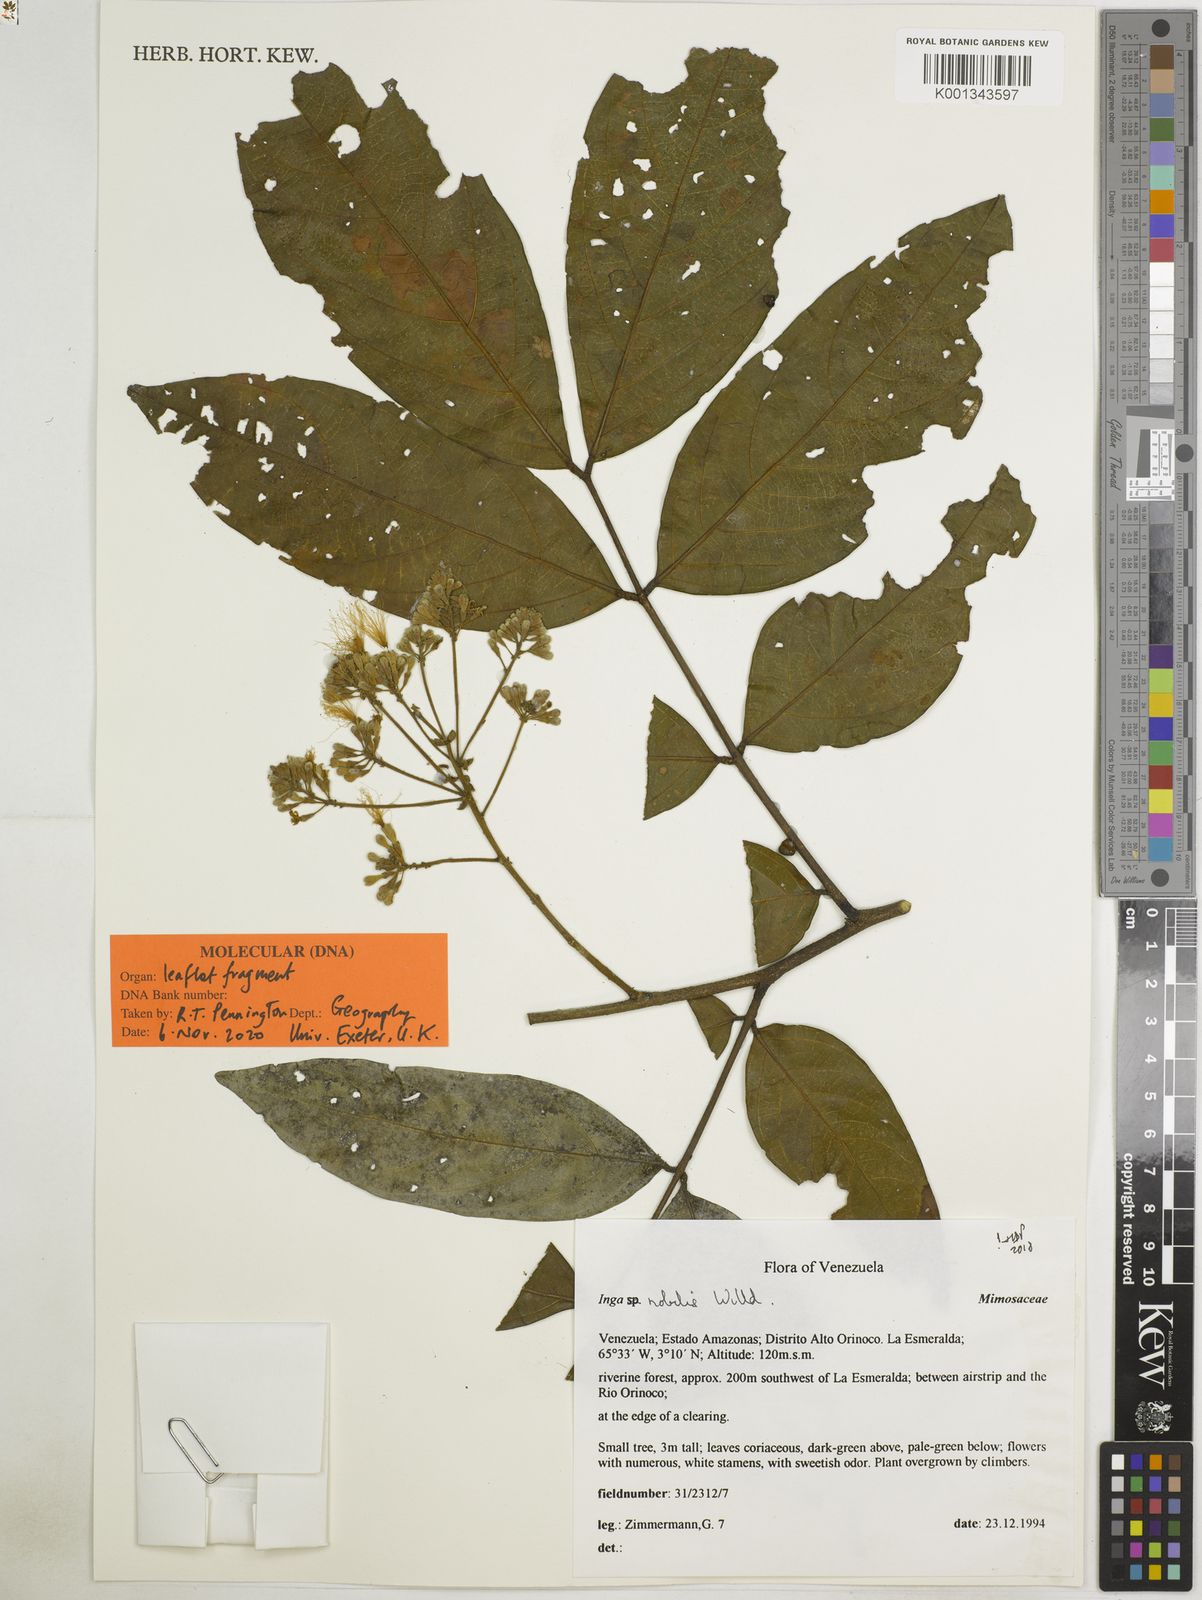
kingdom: Plantae
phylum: Tracheophyta
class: Magnoliopsida
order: Fabales
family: Fabaceae
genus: Inga
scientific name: Inga nobilis
